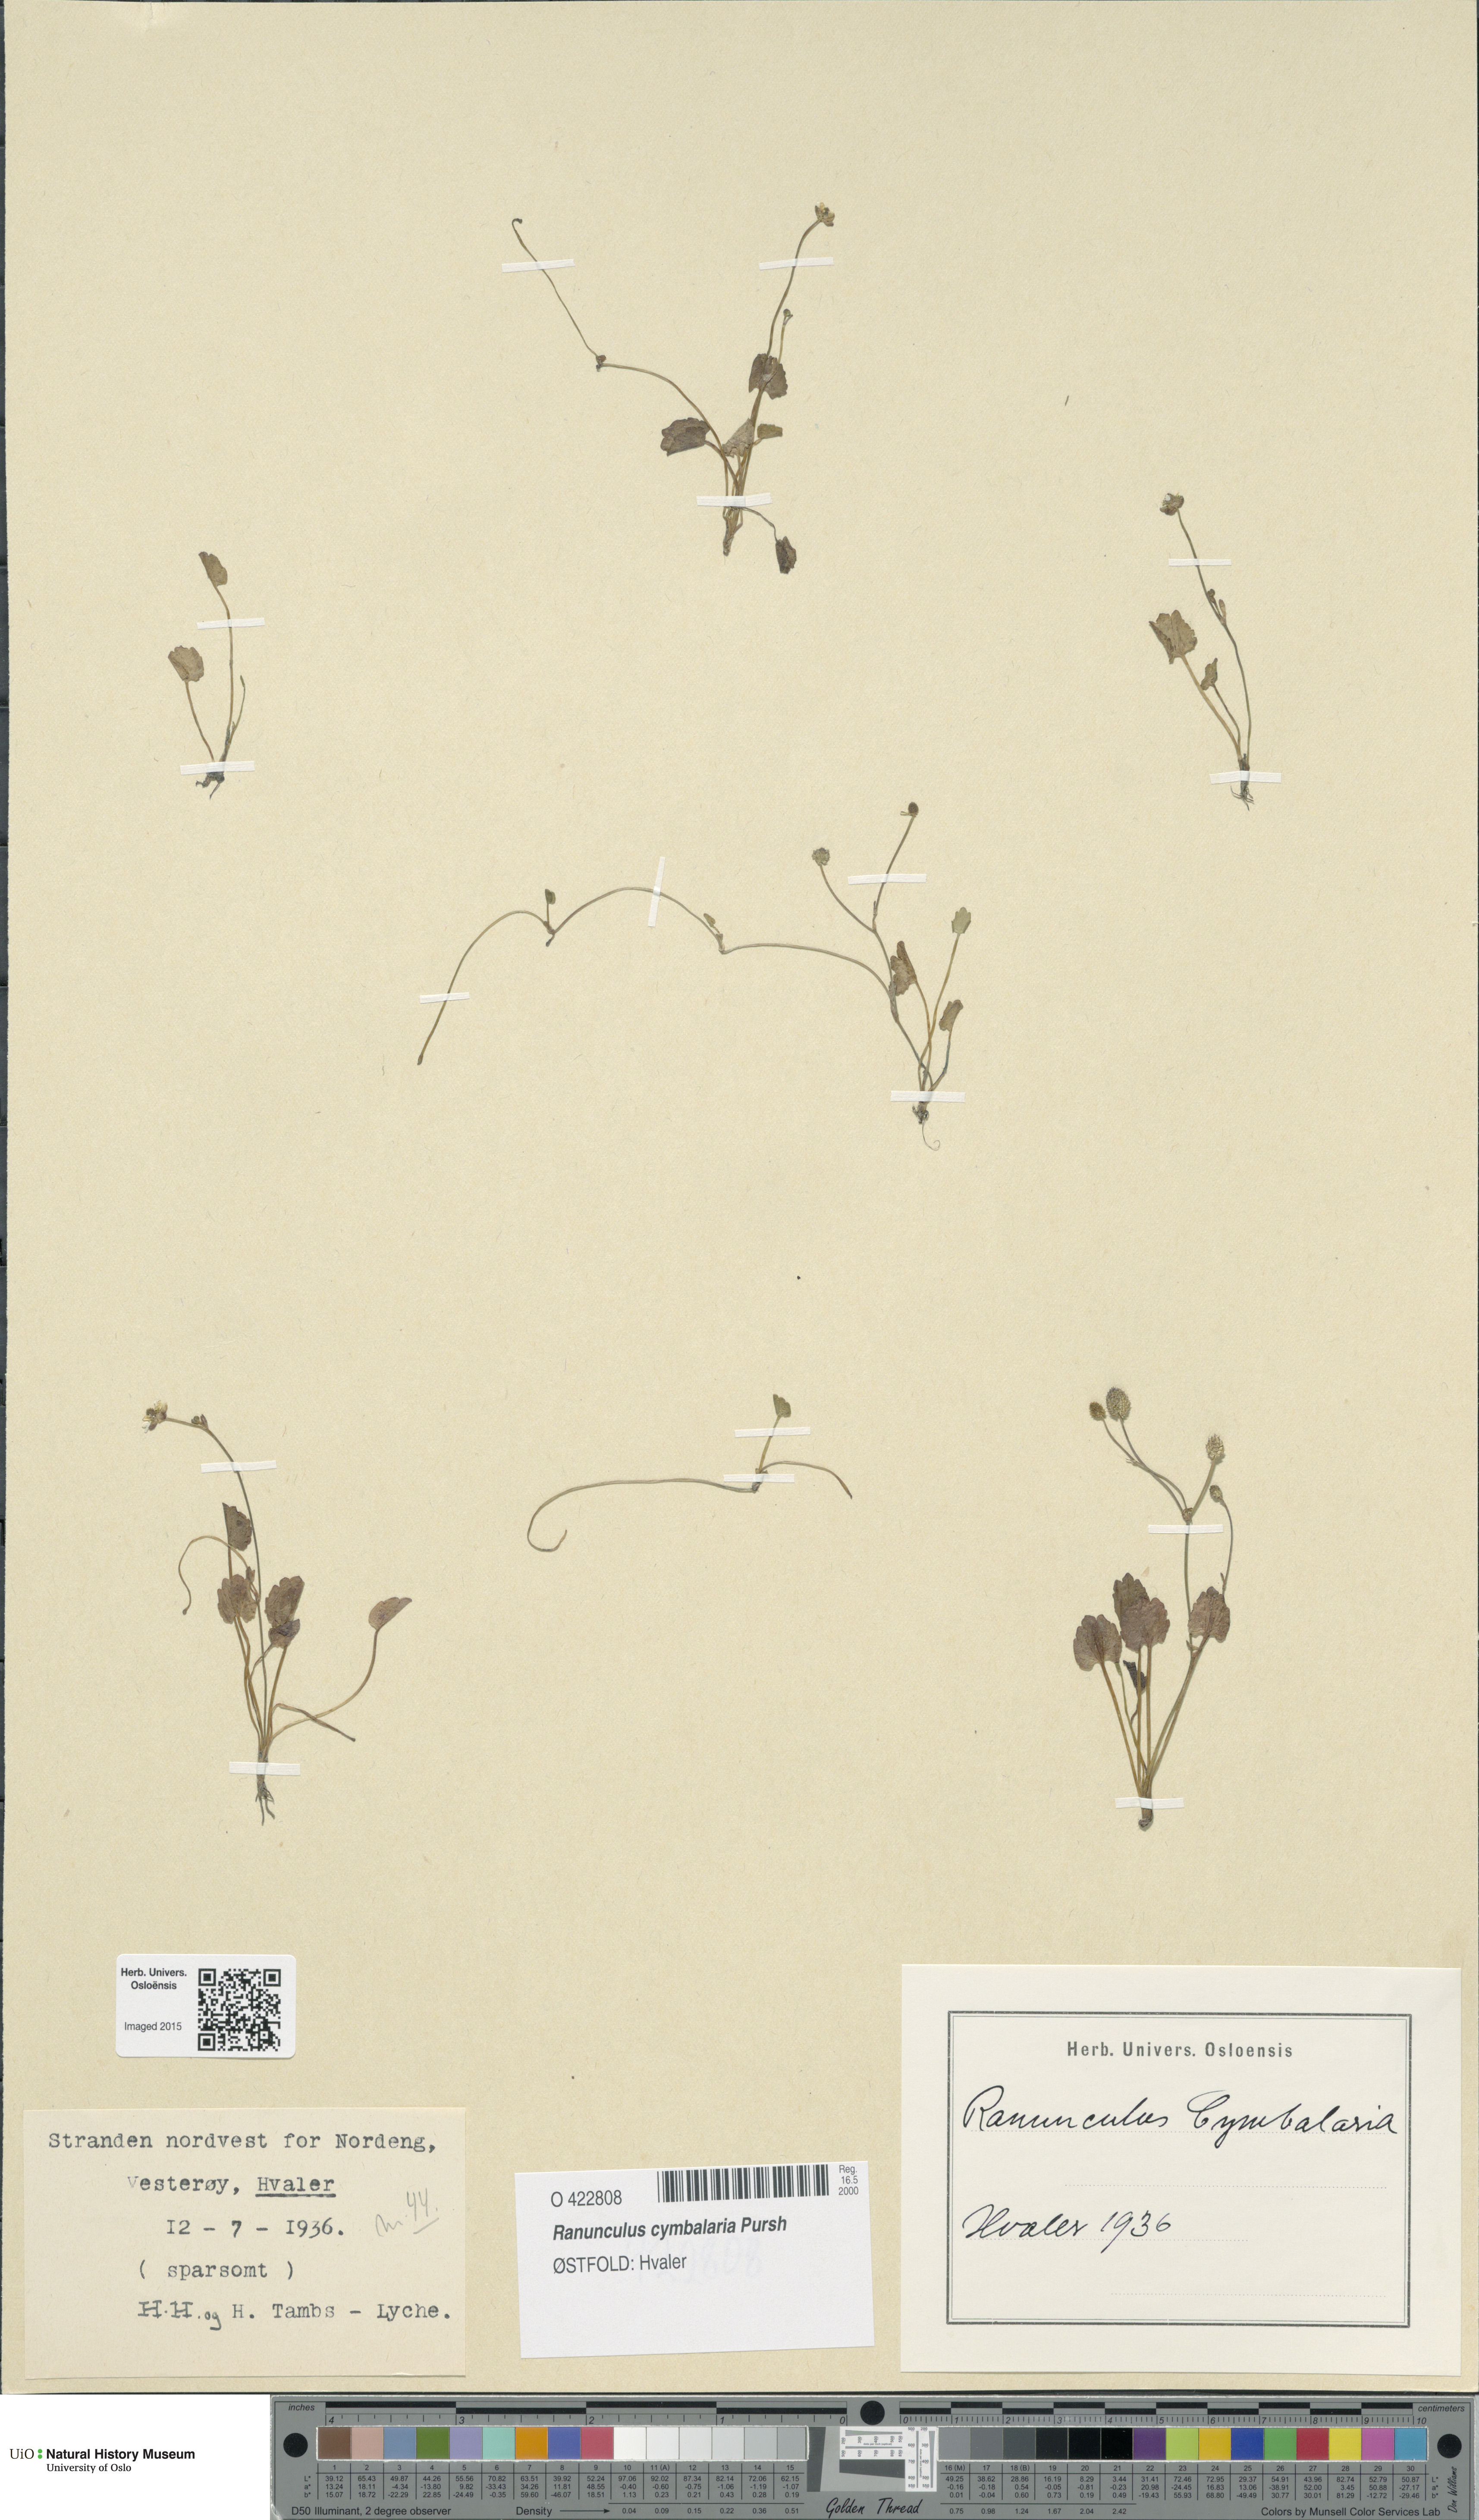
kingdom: Plantae
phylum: Tracheophyta
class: Magnoliopsida
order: Ranunculales
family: Ranunculaceae
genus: Halerpestes
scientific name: Halerpestes cymbalaria
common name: Seaside crowfoot
